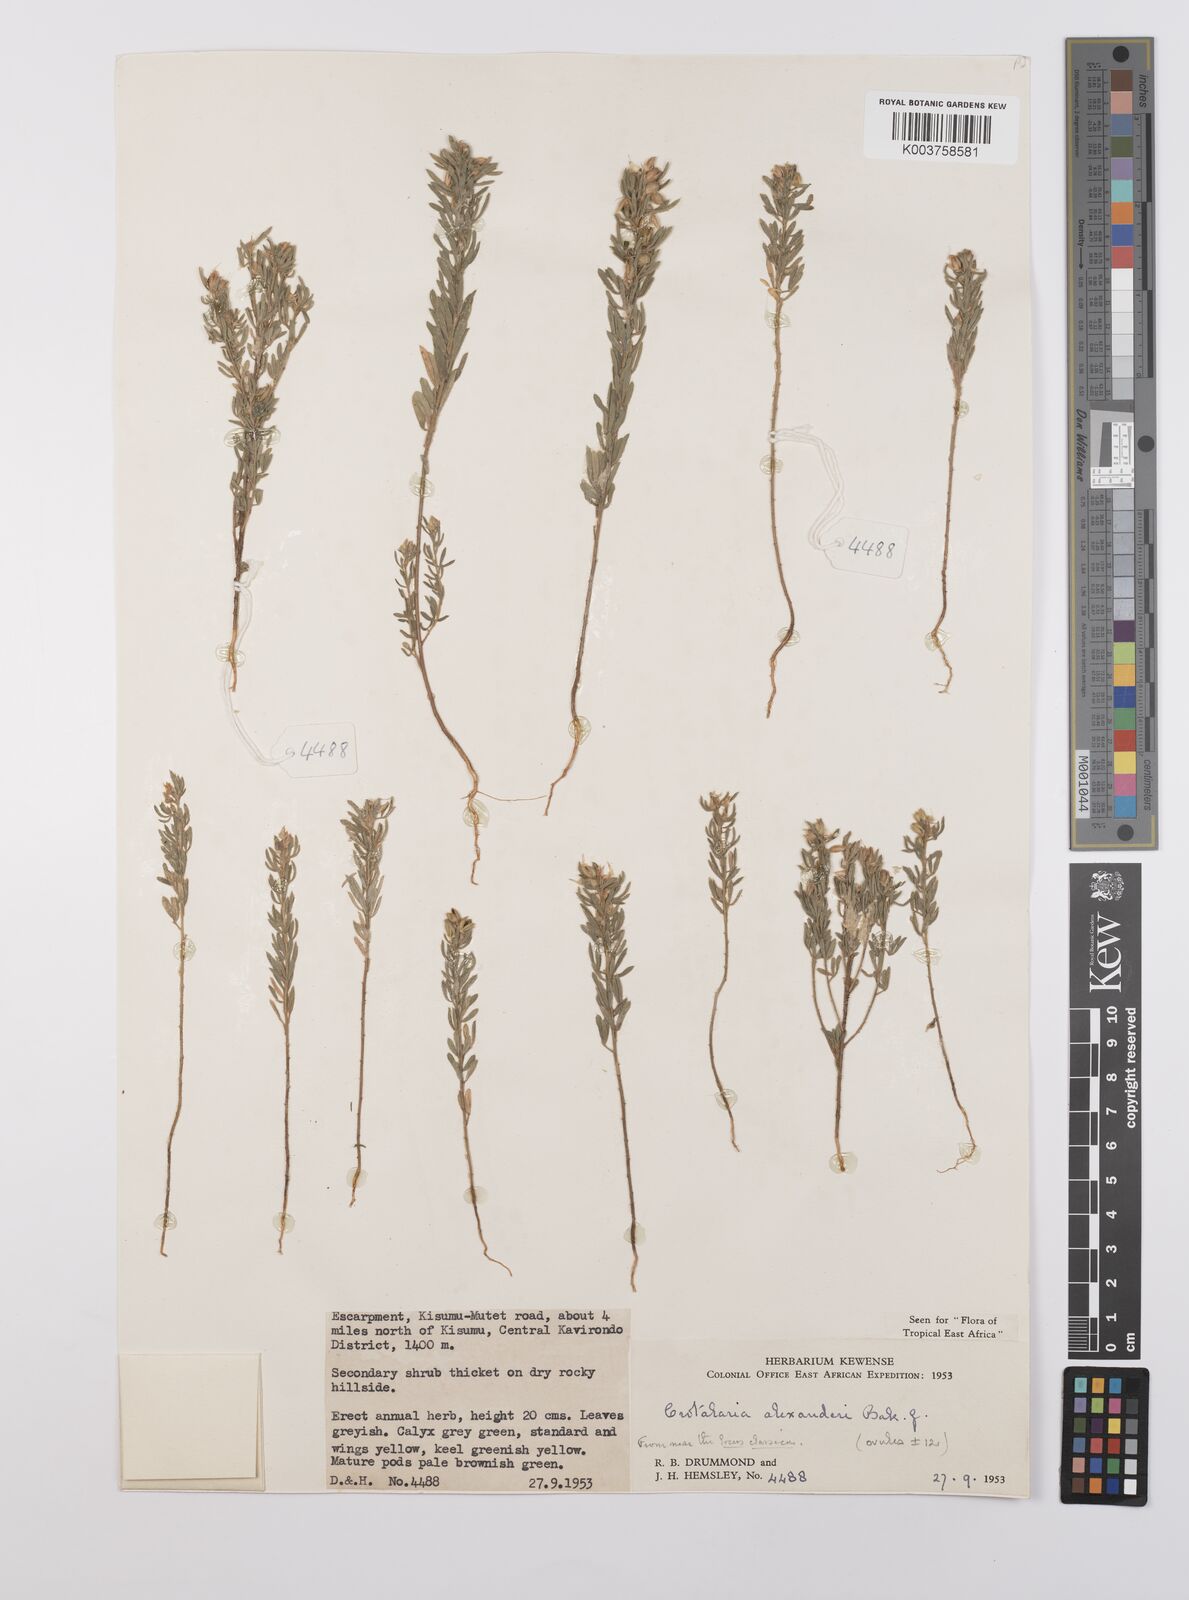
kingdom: Plantae
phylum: Tracheophyta
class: Magnoliopsida
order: Fabales
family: Fabaceae
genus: Crotalaria
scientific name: Crotalaria alexandri
